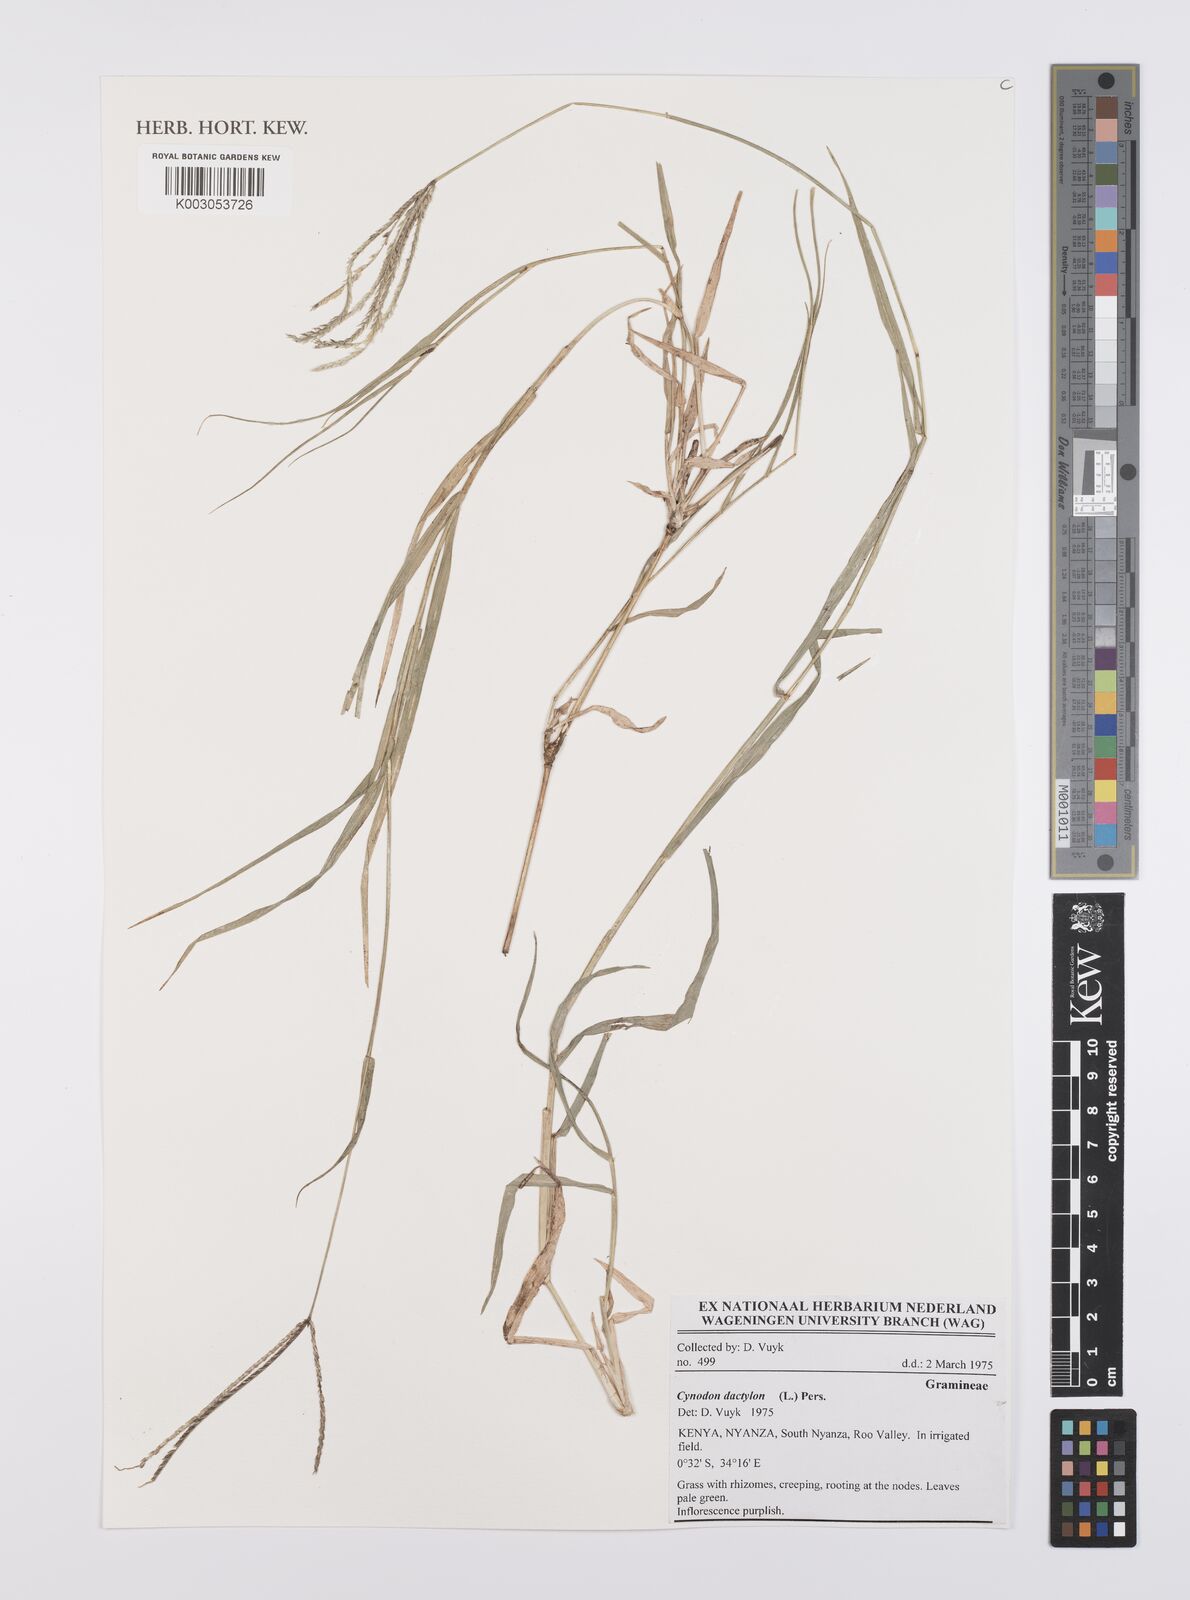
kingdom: Plantae
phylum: Tracheophyta
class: Liliopsida
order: Poales
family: Poaceae
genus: Cynodon
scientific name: Cynodon dactylon
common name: Bermuda grass
